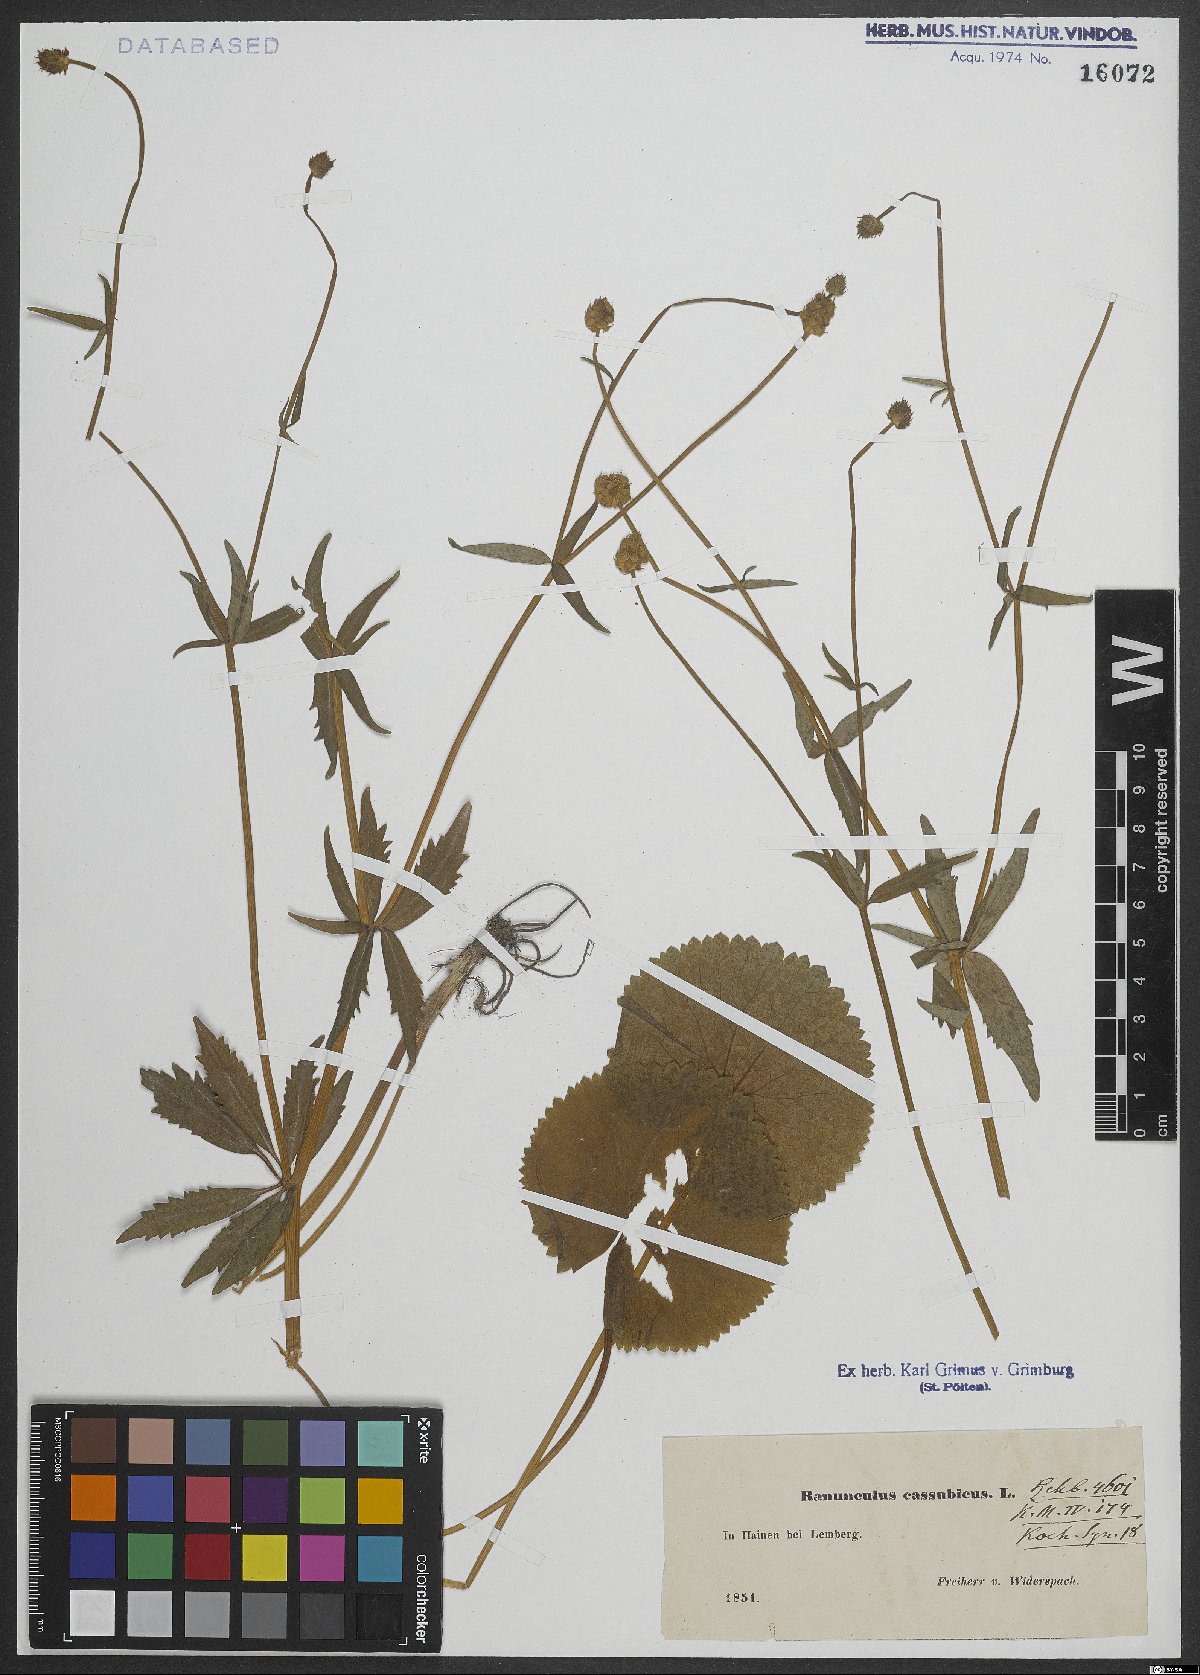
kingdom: Plantae
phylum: Tracheophyta
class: Magnoliopsida
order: Ranunculales
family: Ranunculaceae
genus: Ranunculus
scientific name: Ranunculus cassubicus
